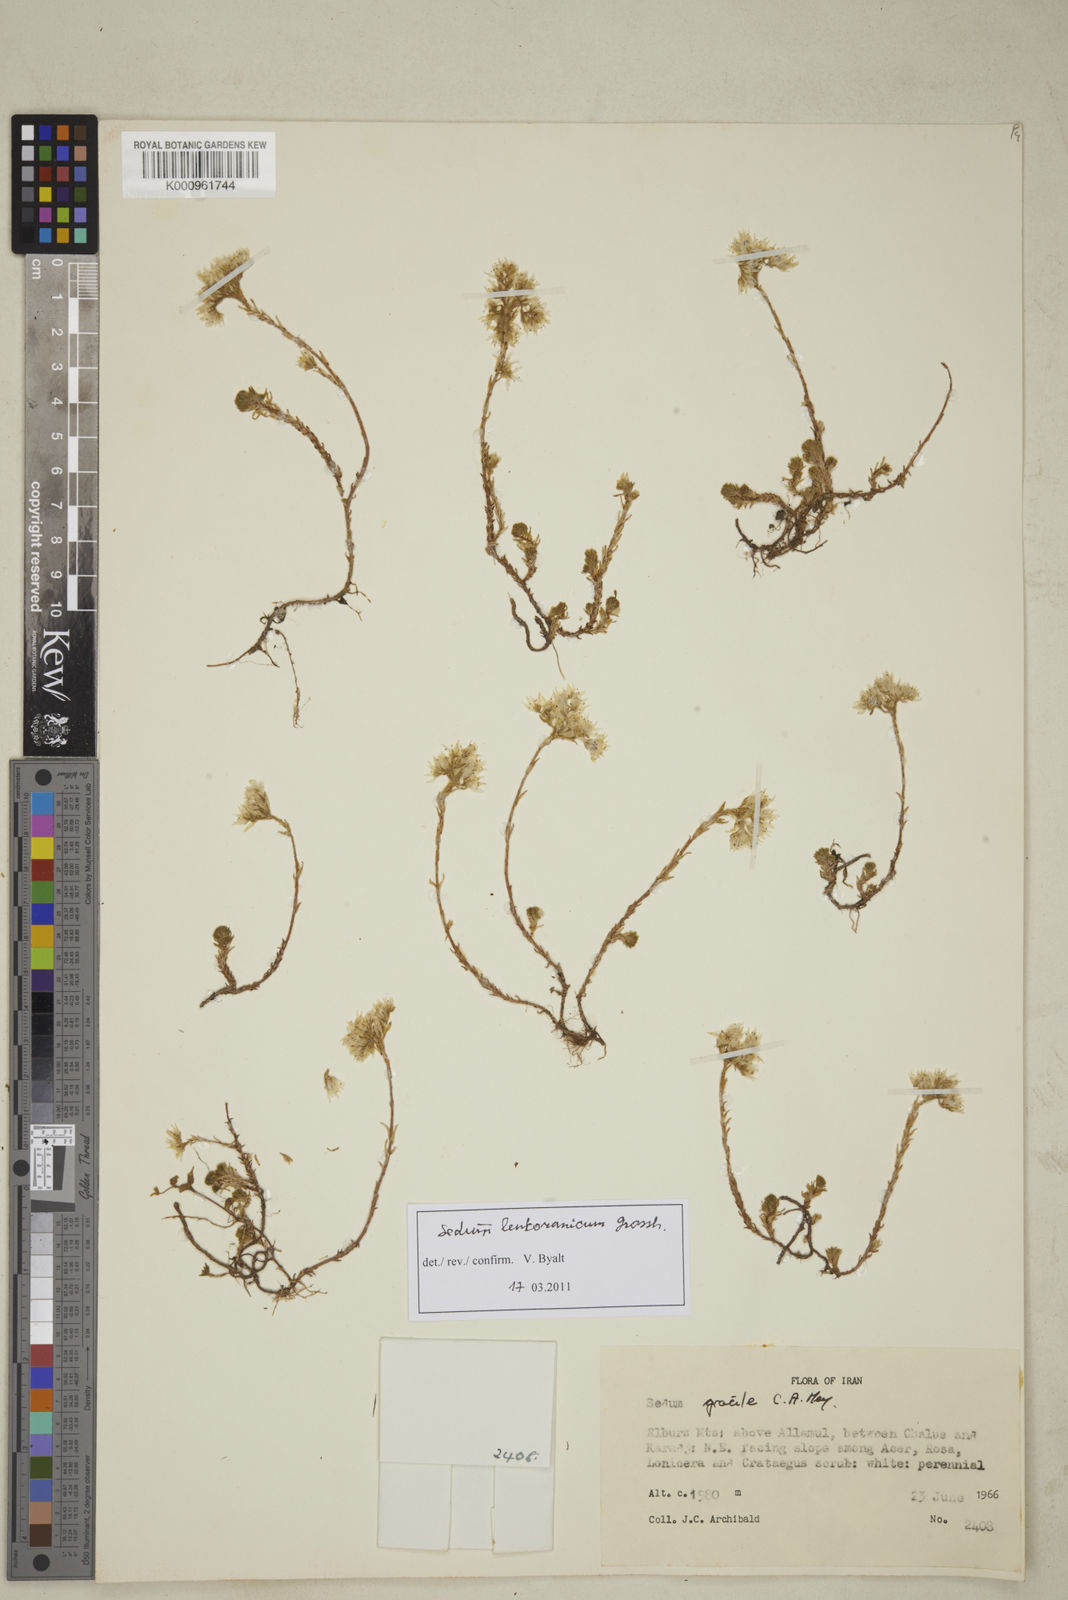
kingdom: Plantae
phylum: Tracheophyta
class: Magnoliopsida
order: Saxifragales
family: Crassulaceae
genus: Sedum
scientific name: Sedum gracile
